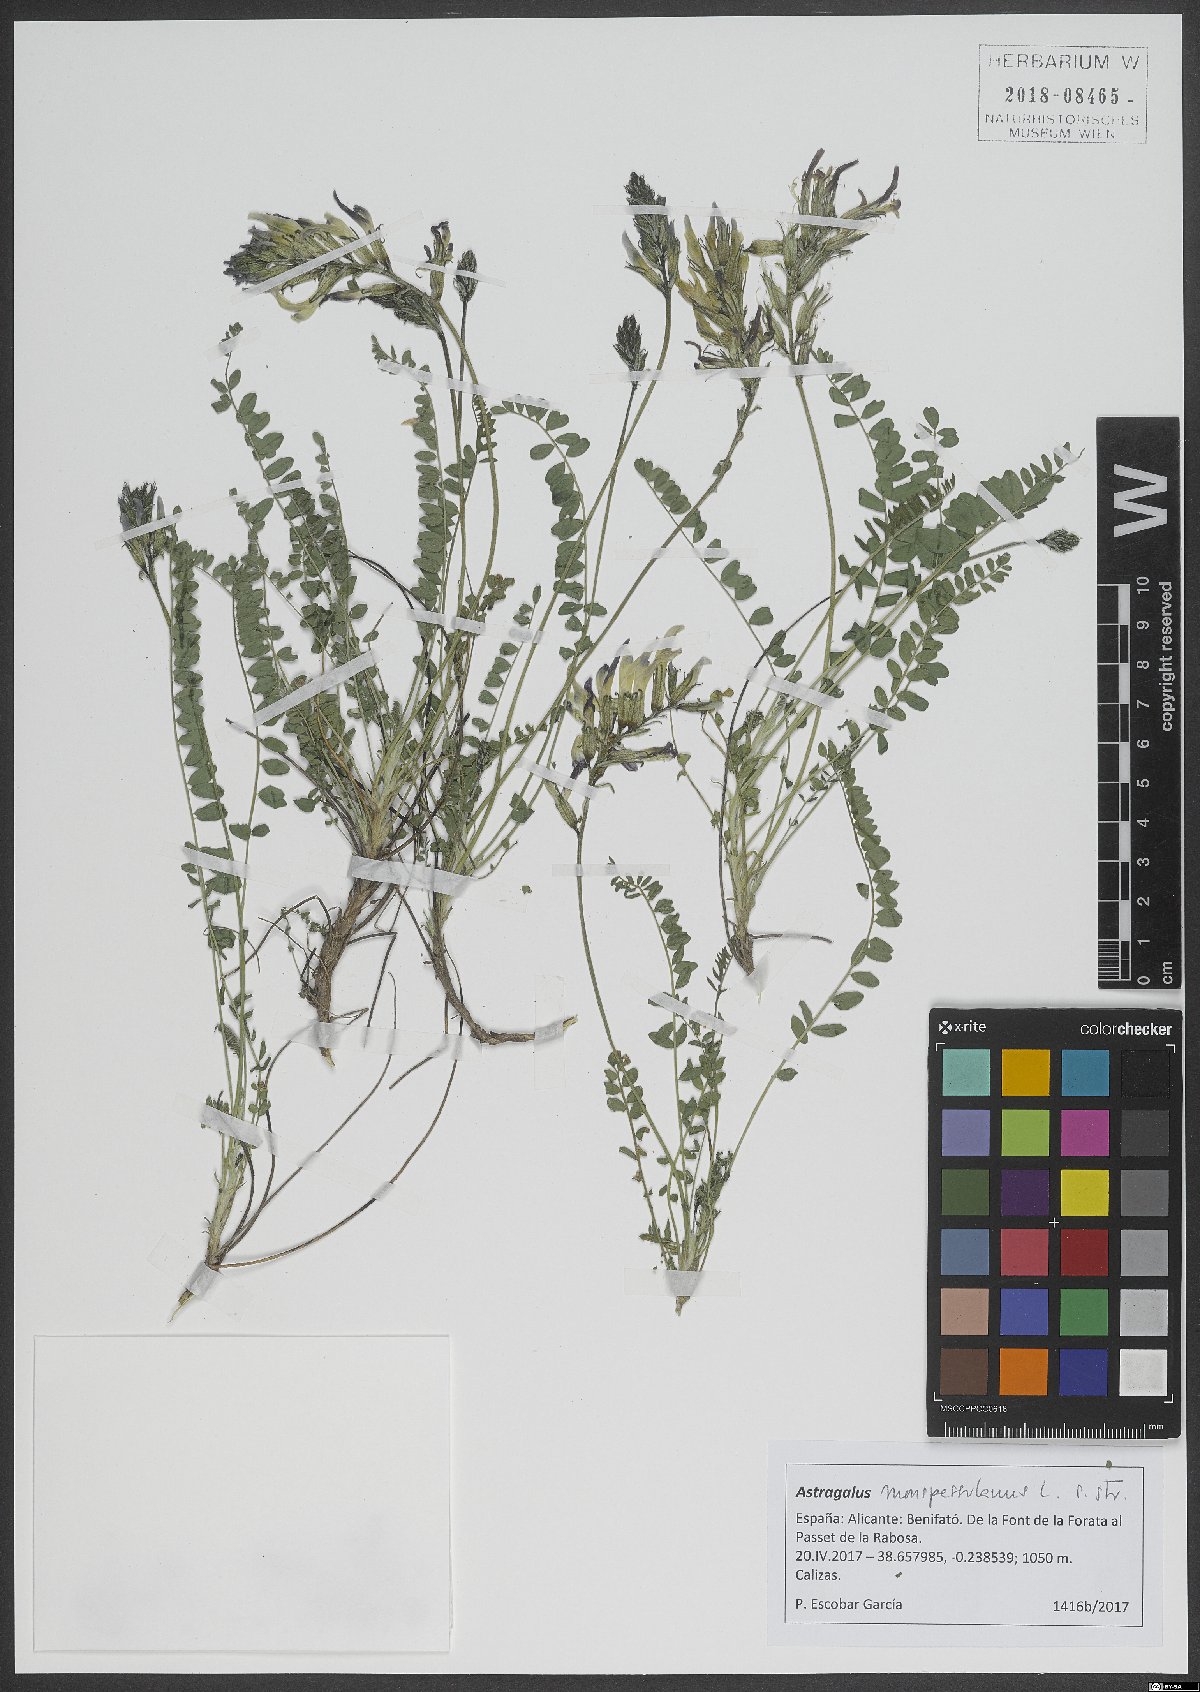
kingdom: Plantae
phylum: Tracheophyta
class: Magnoliopsida
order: Fabales
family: Fabaceae
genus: Astragalus
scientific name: Astragalus monspessulanus
